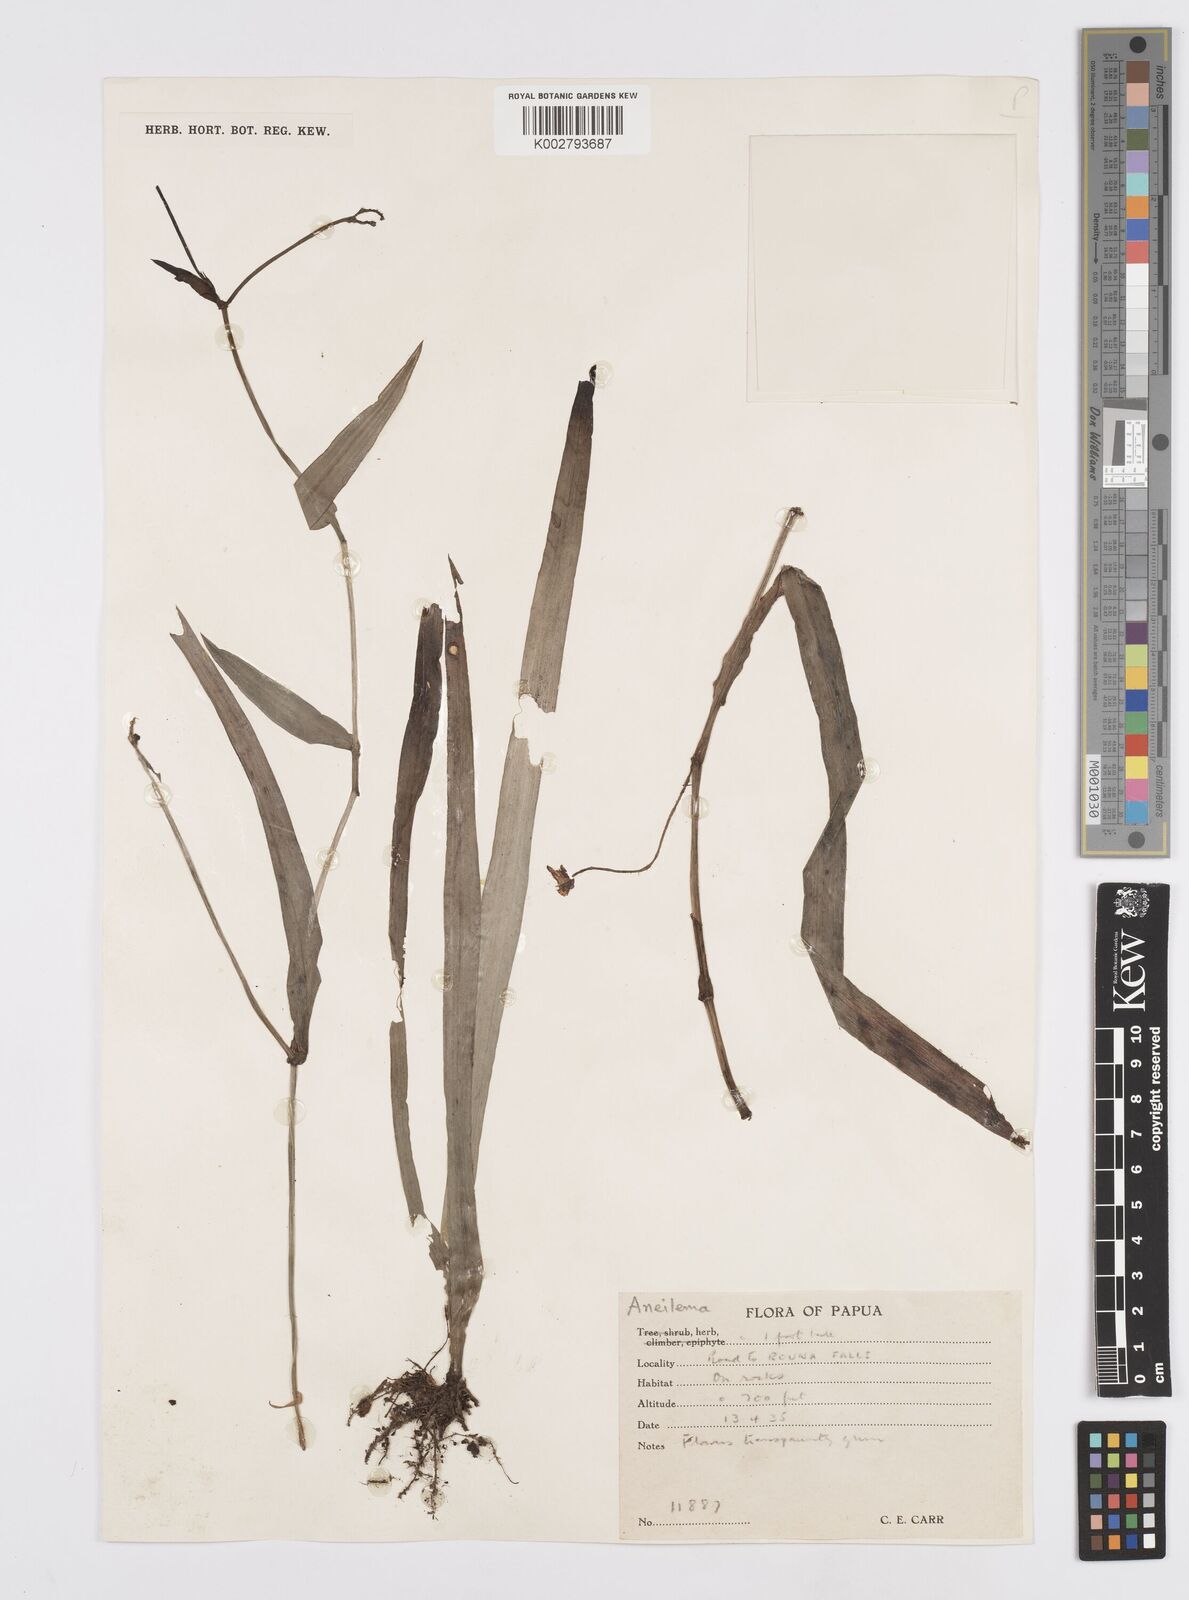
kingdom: Plantae
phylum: Tracheophyta
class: Liliopsida
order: Commelinales
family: Commelinaceae
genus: Murdannia
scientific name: Murdannia
